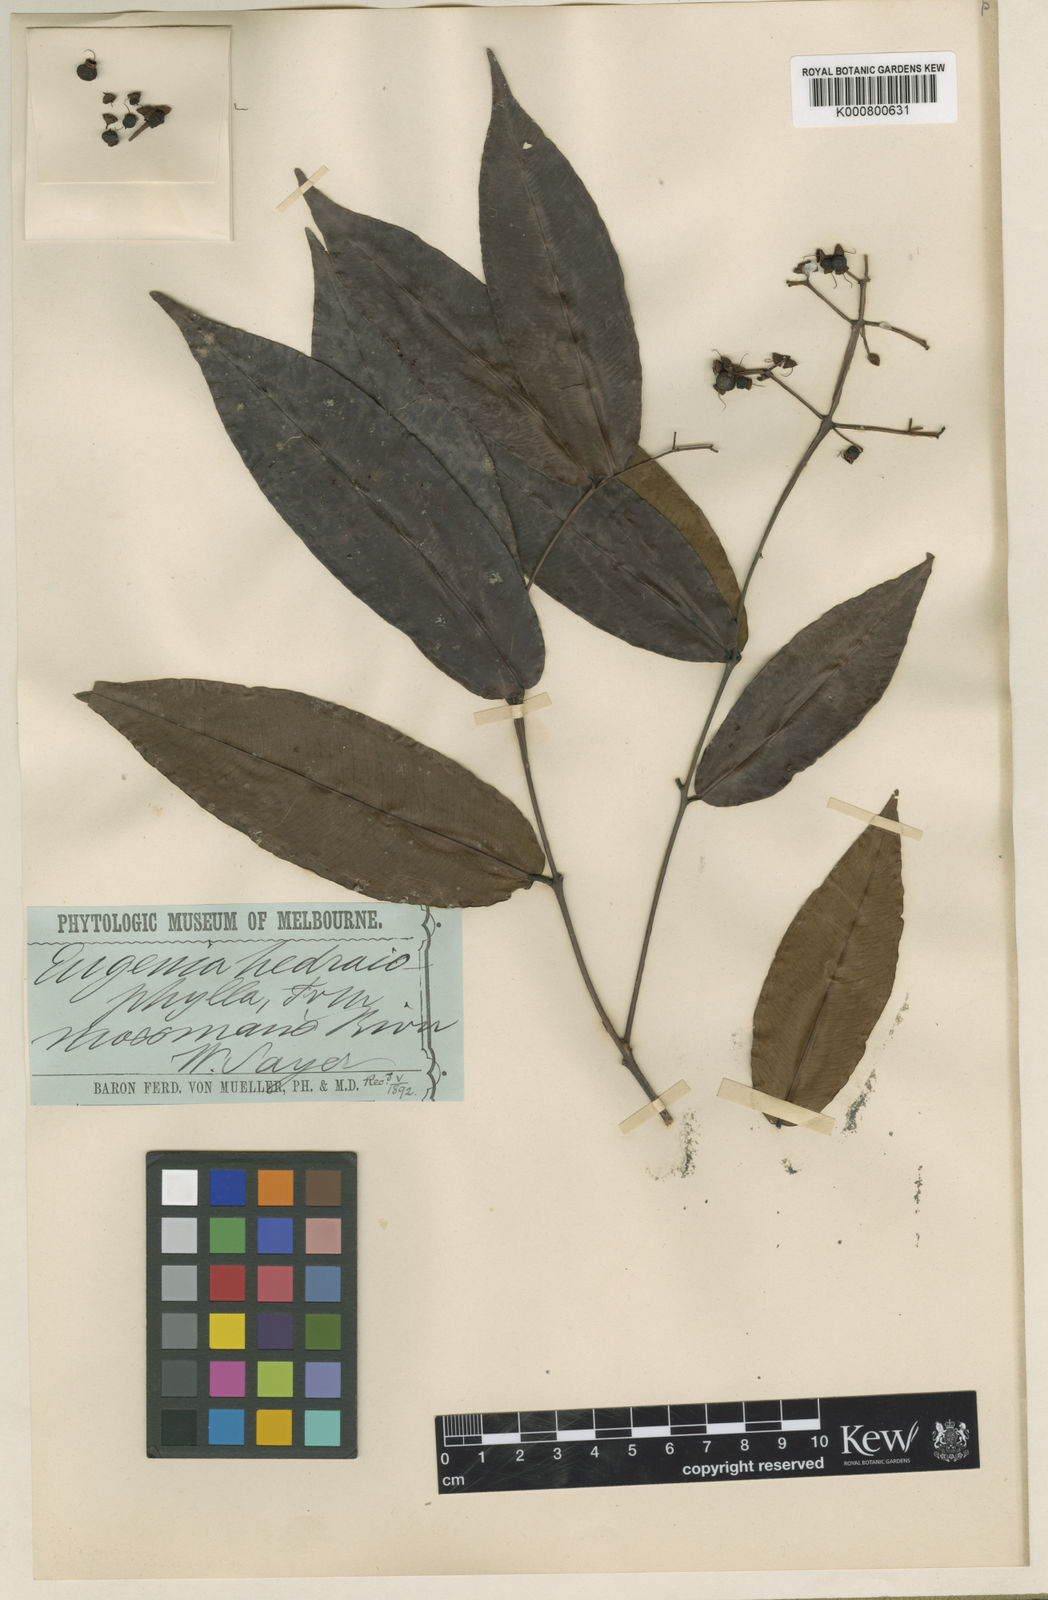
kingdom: Plantae
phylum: Tracheophyta
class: Magnoliopsida
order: Myrtales
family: Myrtaceae
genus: Syzygium
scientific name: Syzygium hedraiophyllum
